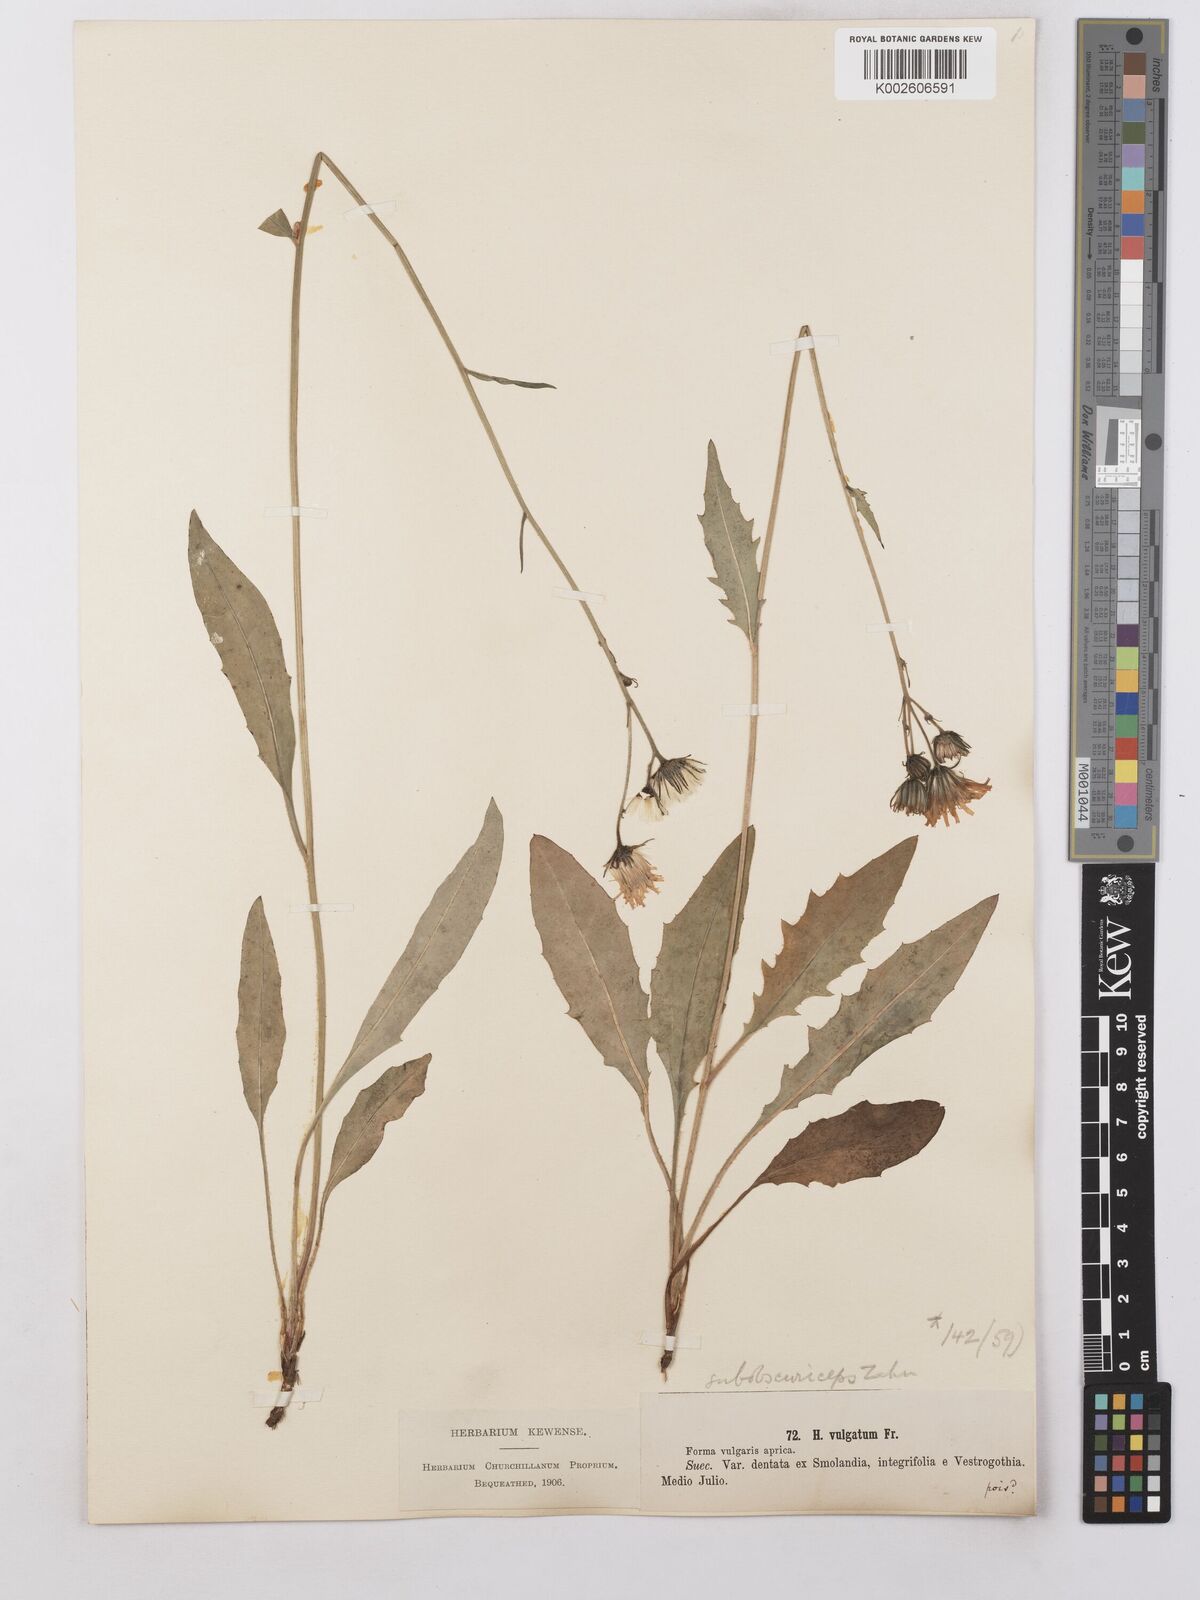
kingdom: Plantae
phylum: Tracheophyta
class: Magnoliopsida
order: Asterales
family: Asteraceae
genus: Hieracium
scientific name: Hieracium lachenalii
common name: Common hawkweed
